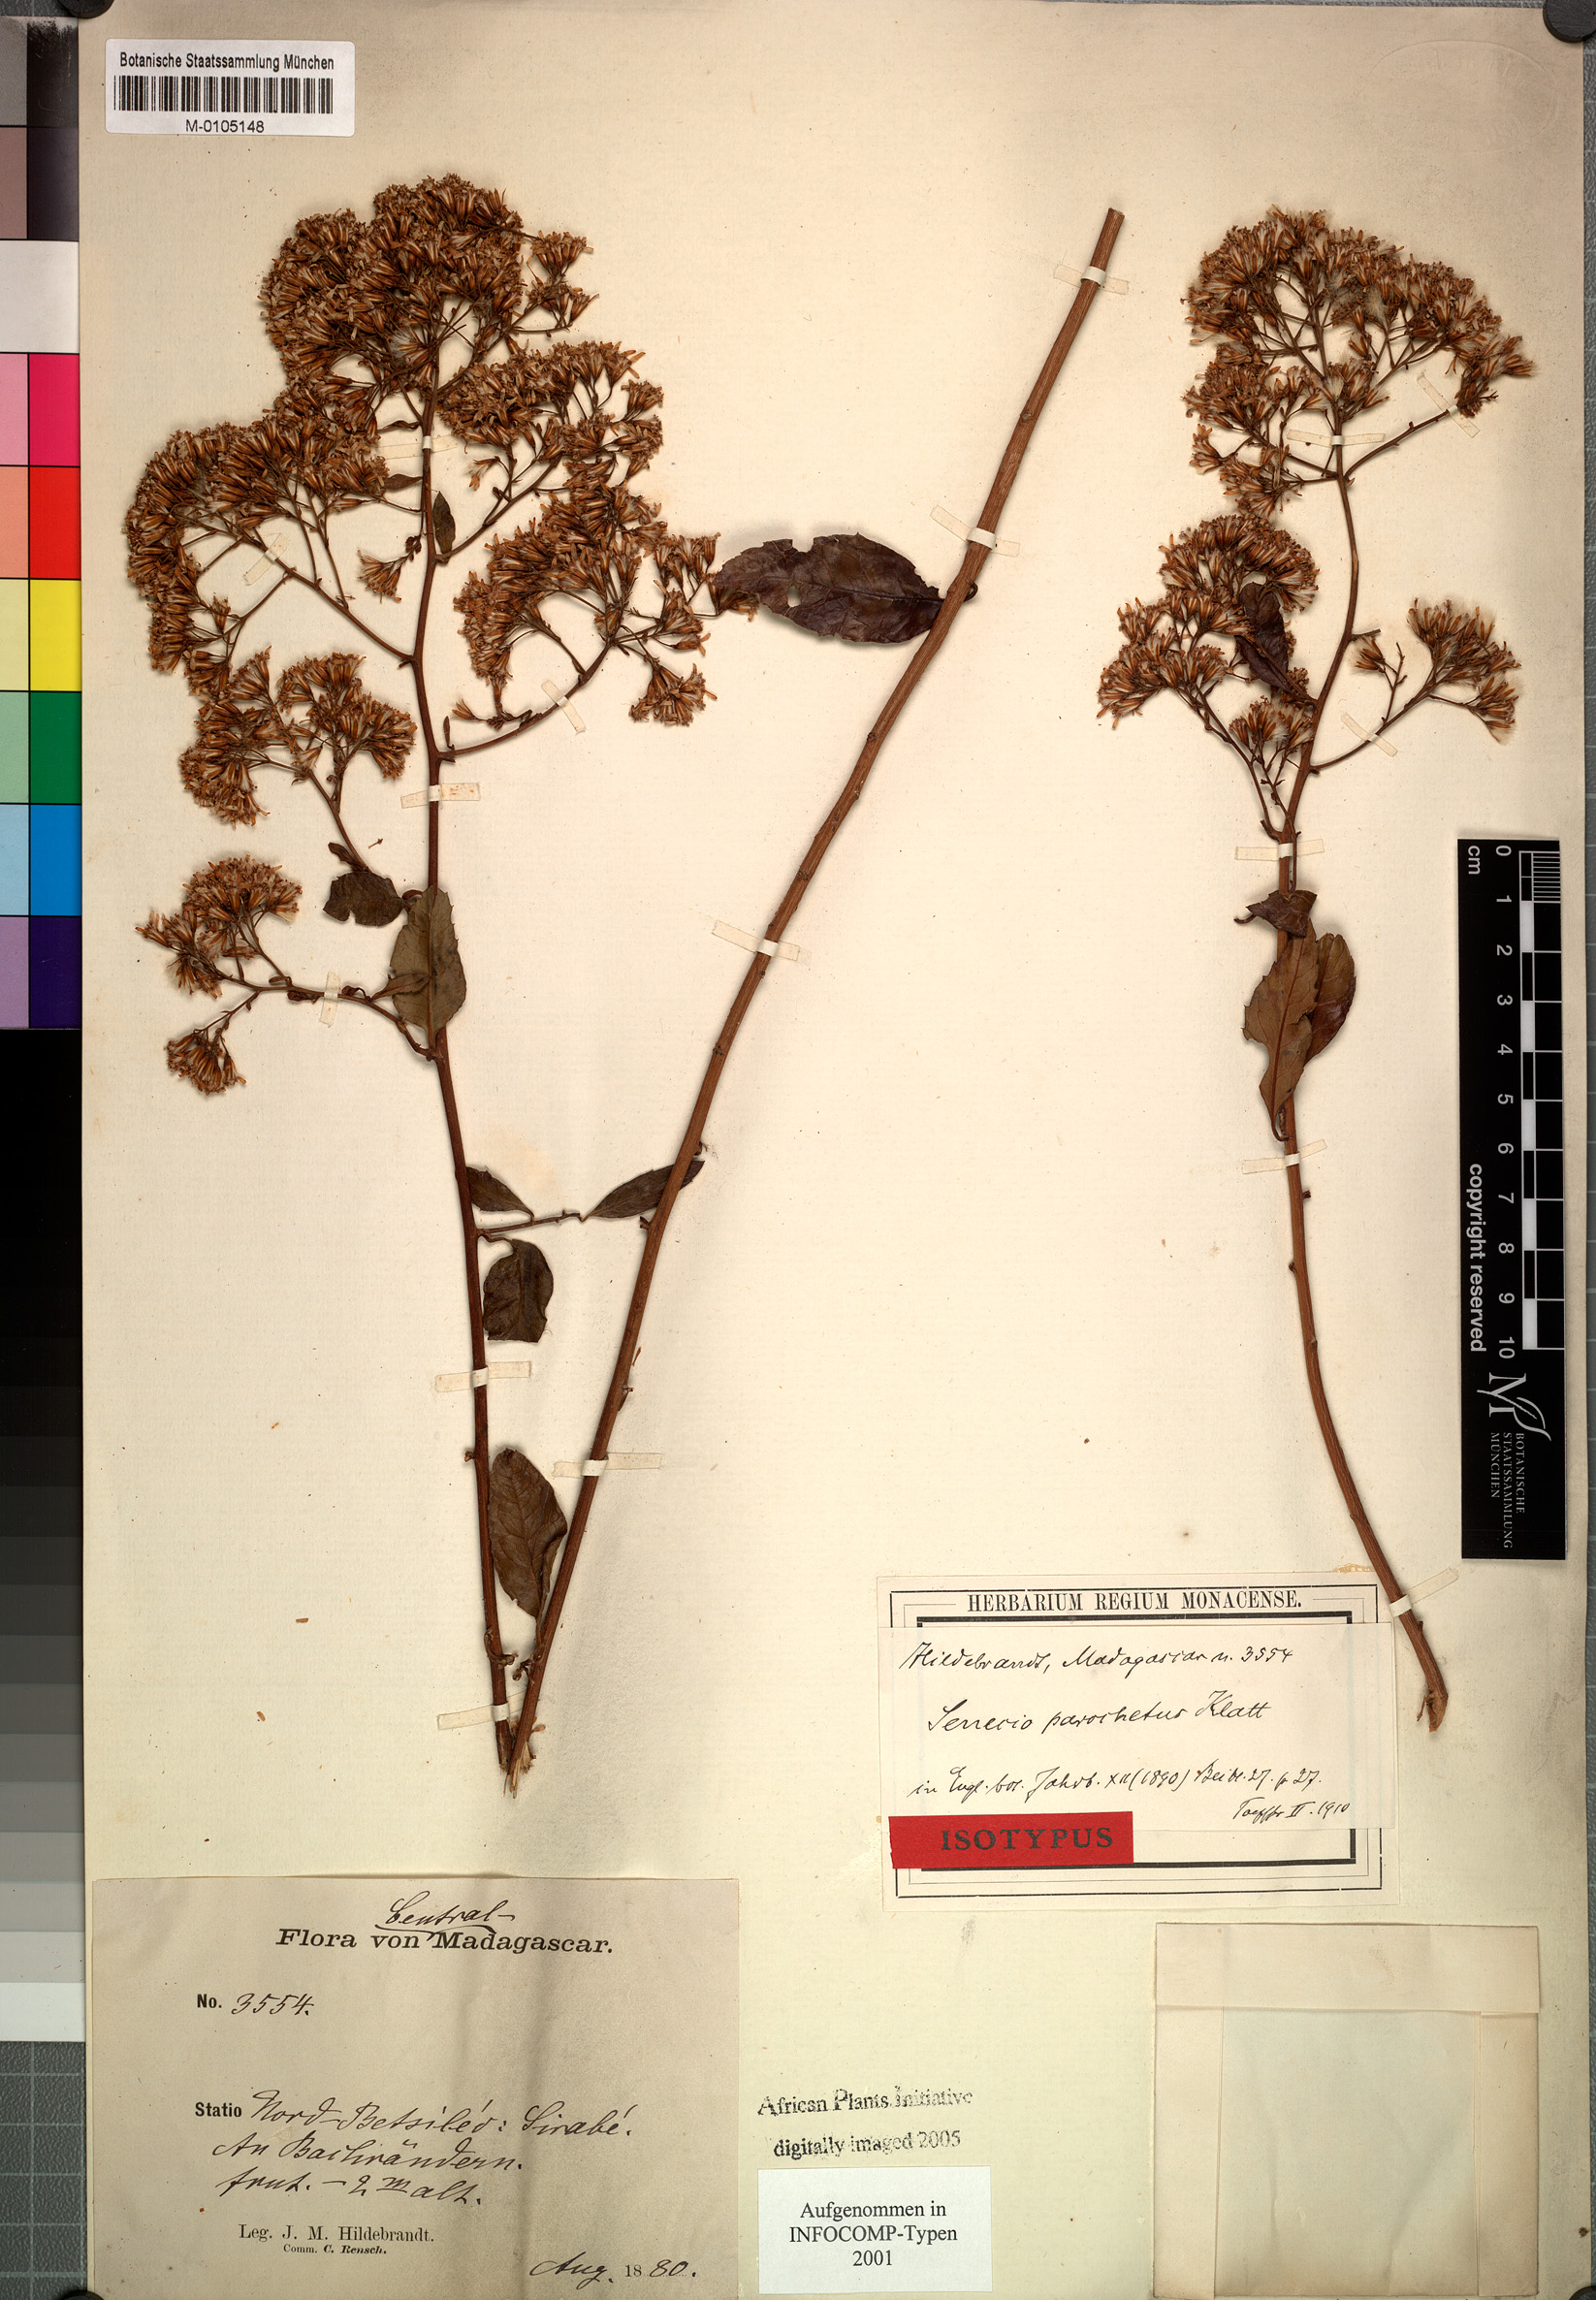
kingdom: Plantae
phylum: Tracheophyta
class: Magnoliopsida
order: Asterales
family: Asteraceae
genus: Hubertia
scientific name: Hubertia faujasioides
